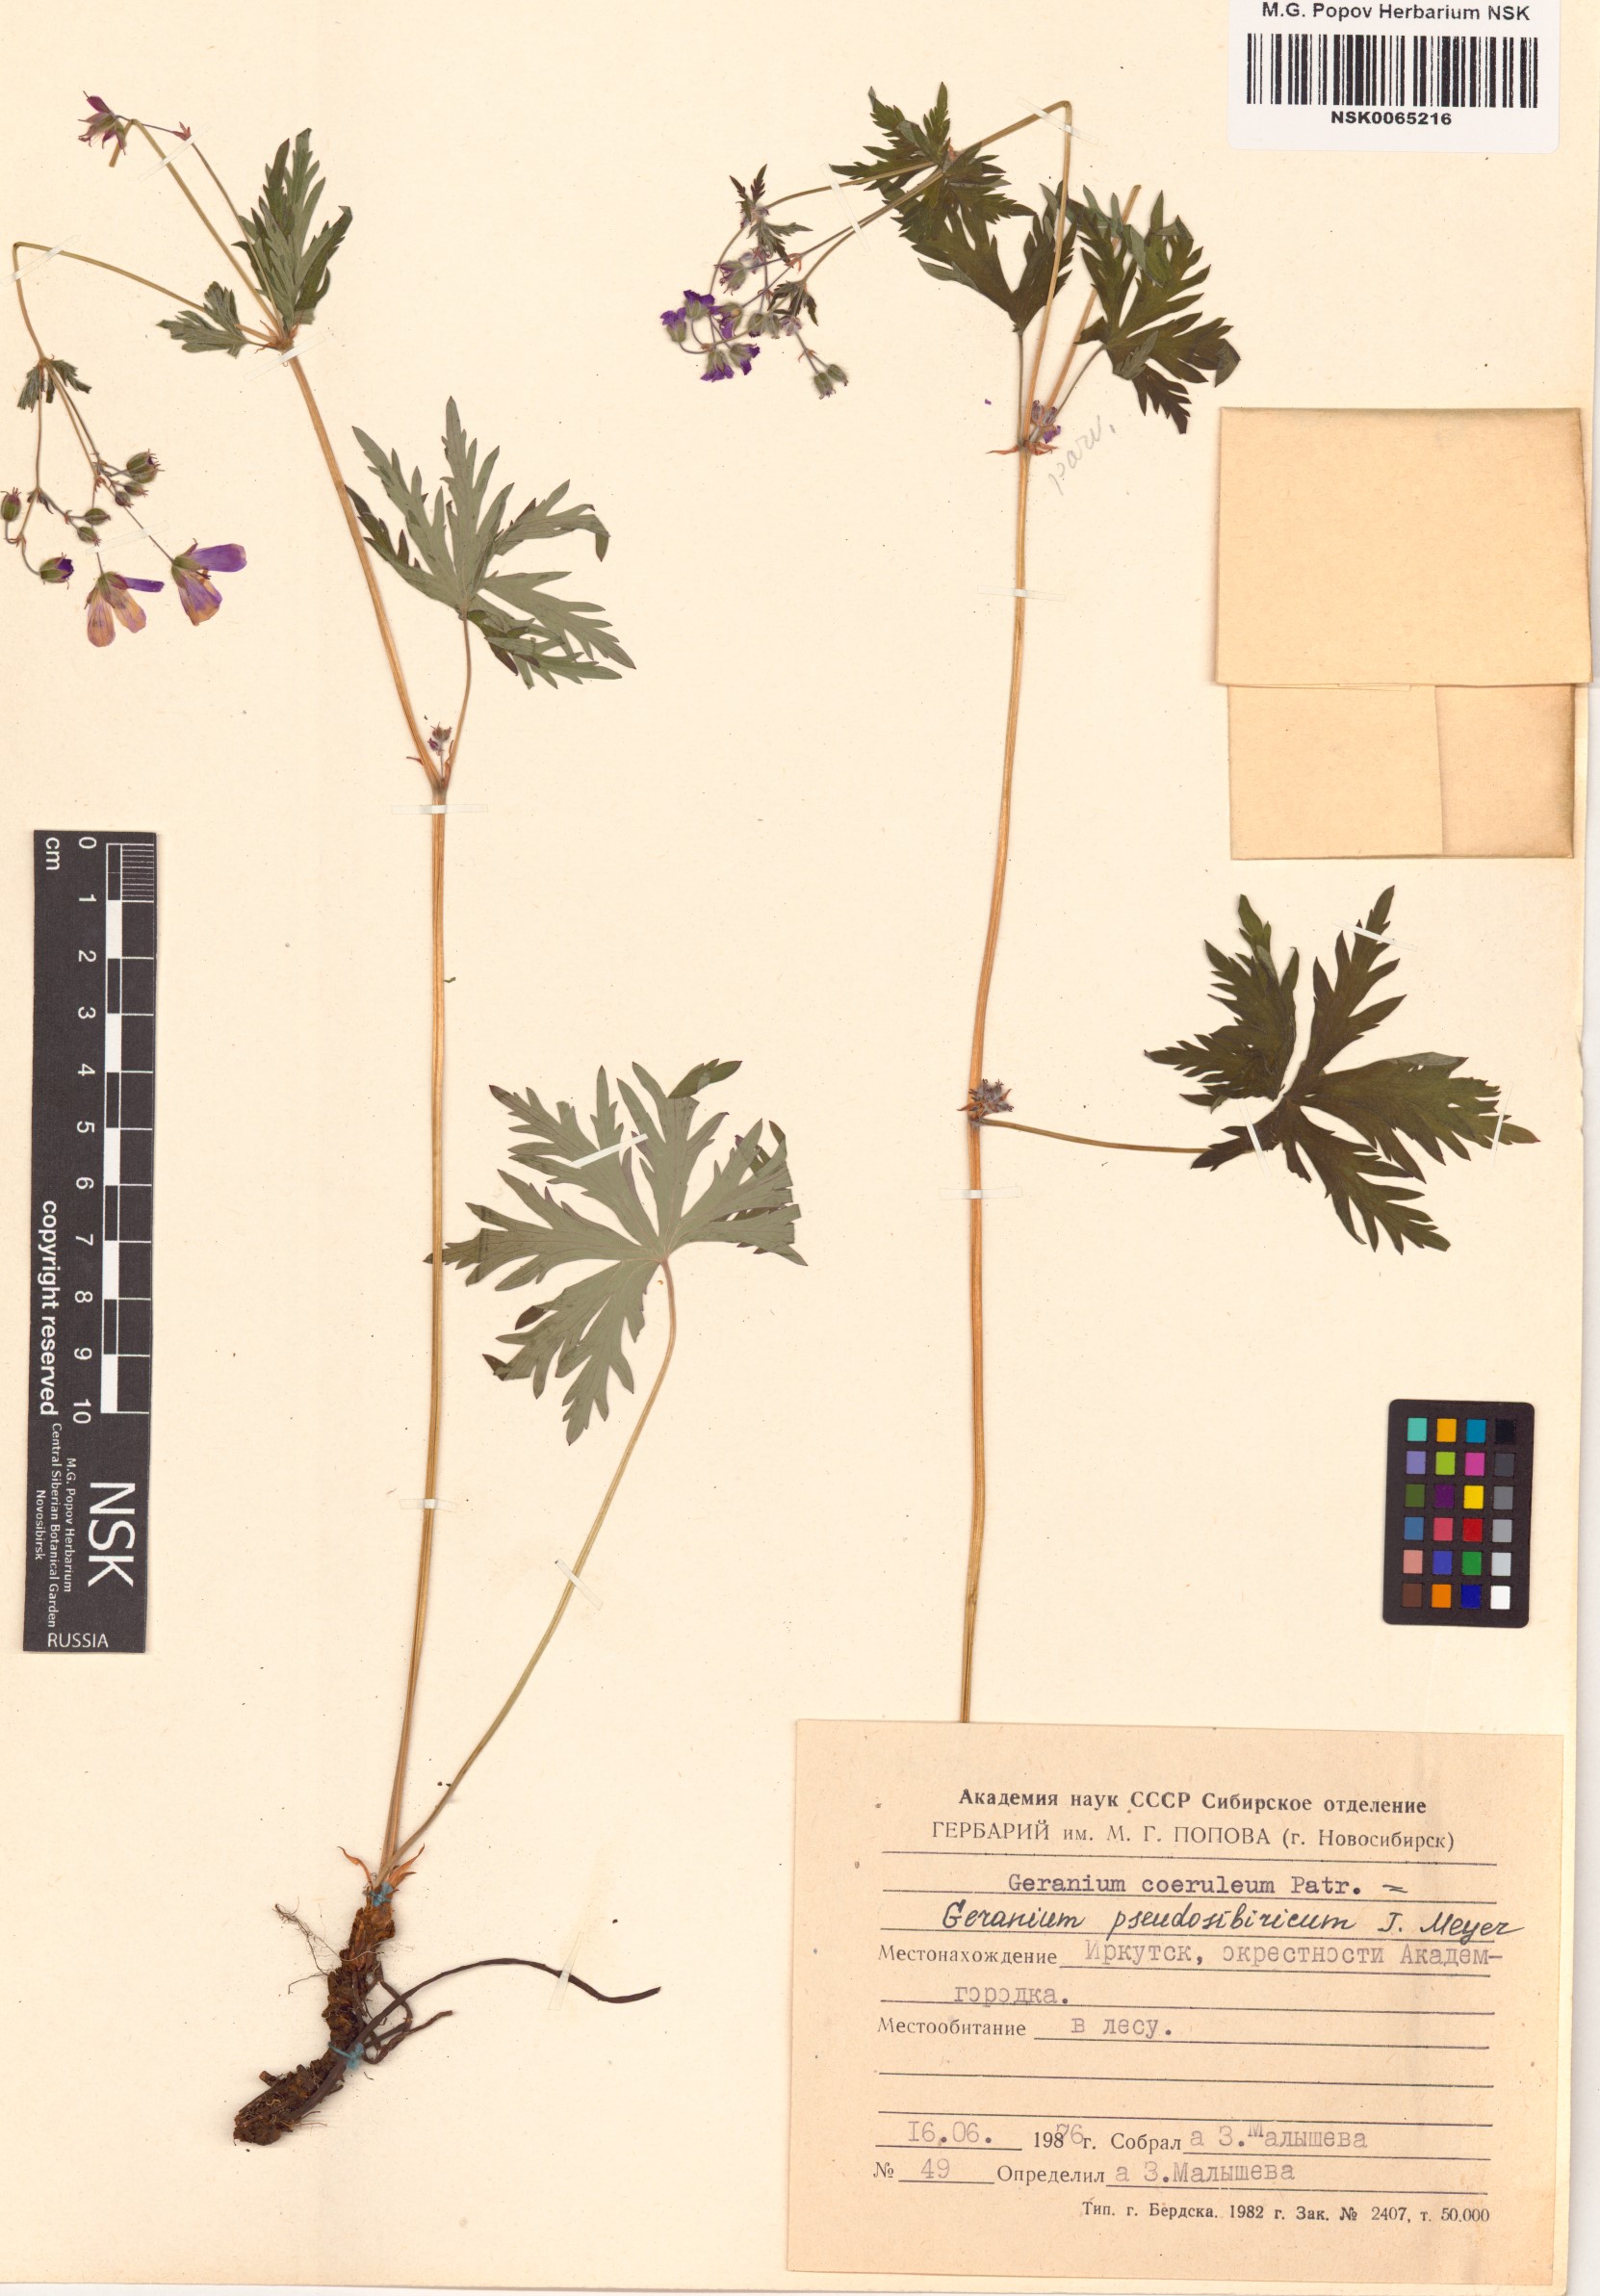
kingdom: Plantae
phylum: Tracheophyta
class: Magnoliopsida
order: Geraniales
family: Geraniaceae
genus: Geranium
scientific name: Geranium pseudosibiricum
